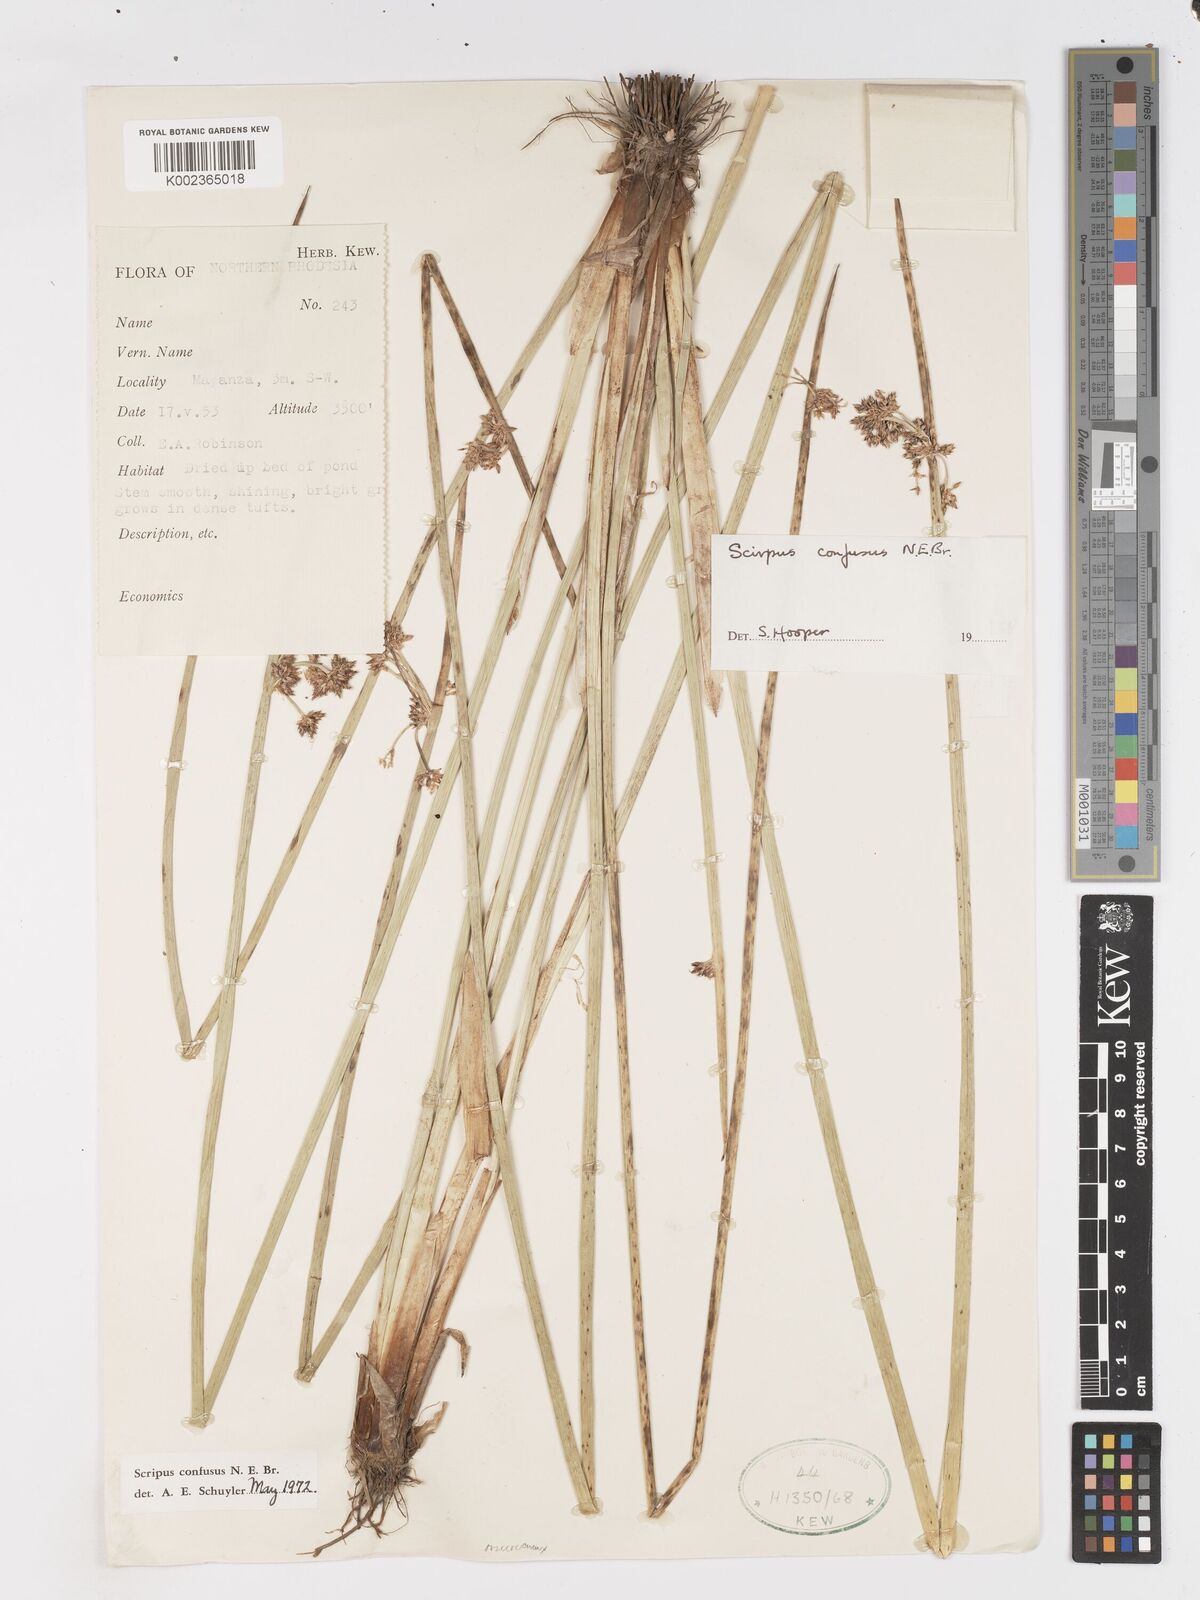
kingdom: Plantae
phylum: Tracheophyta
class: Liliopsida
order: Poales
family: Cyperaceae
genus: Schoenoplectiella
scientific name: Schoenoplectiella confusa
